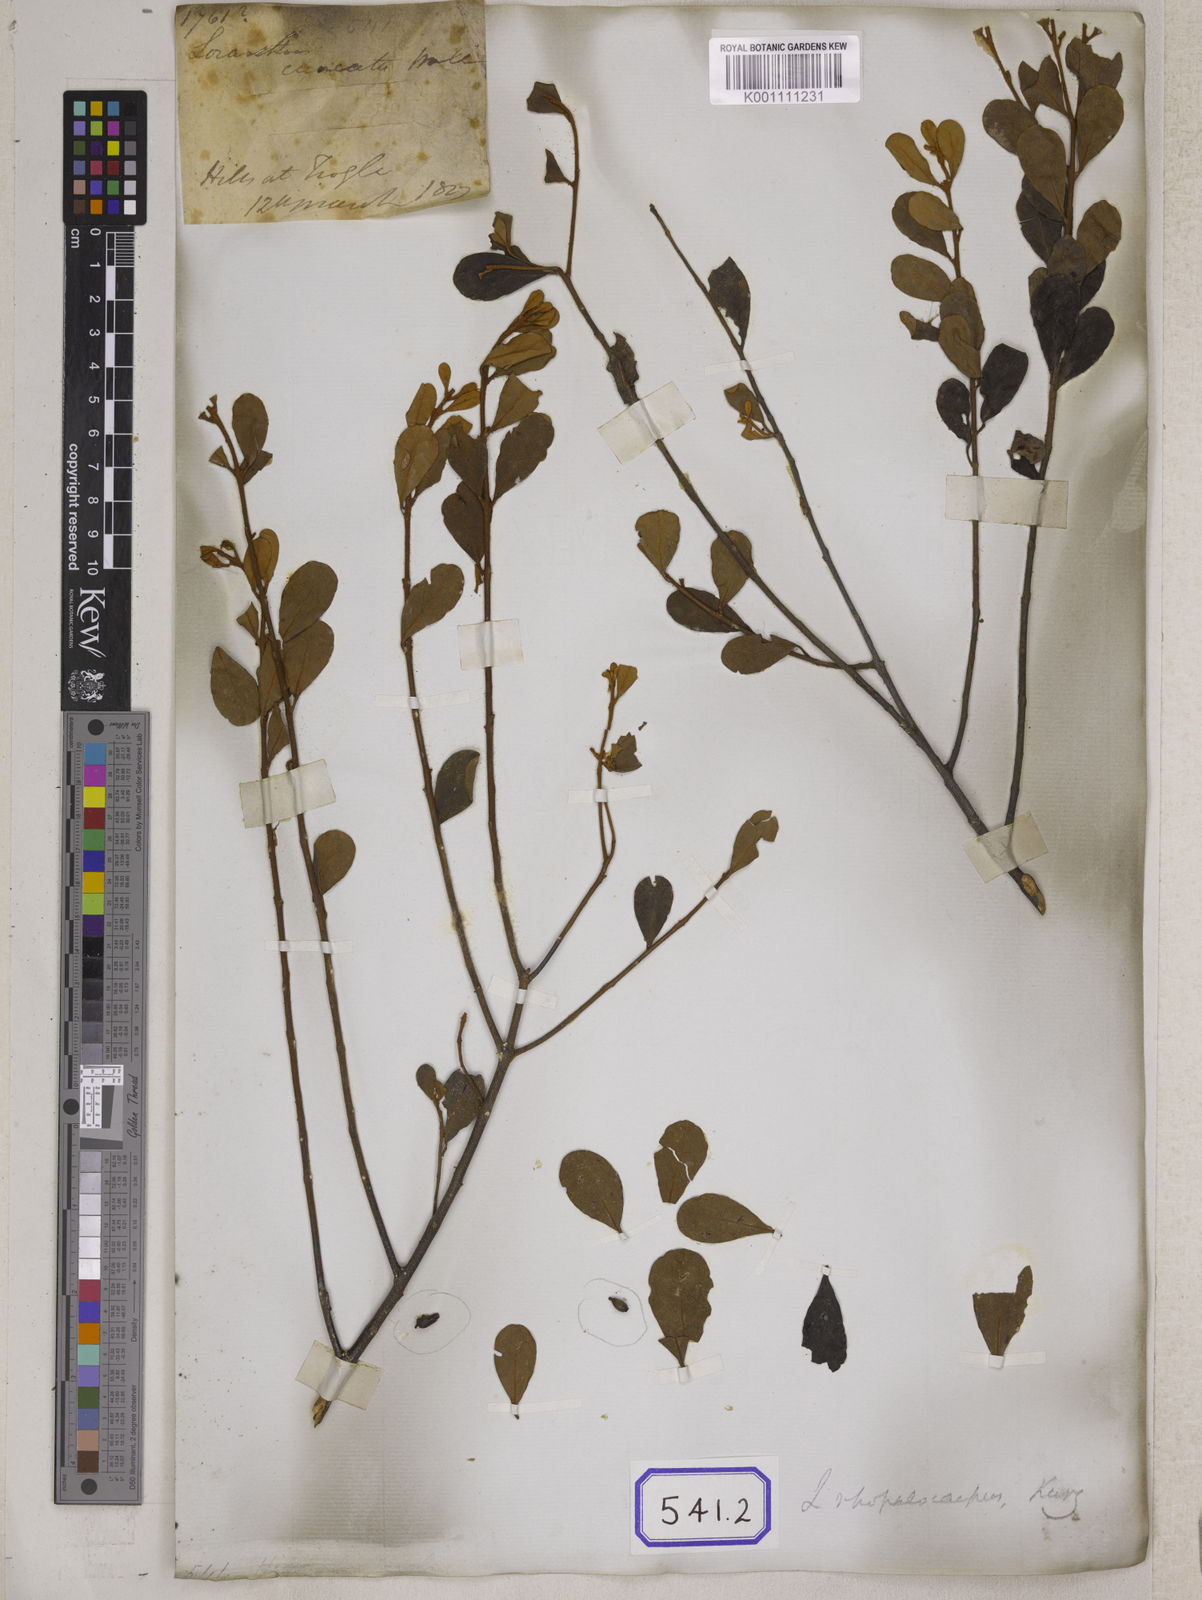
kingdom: Plantae
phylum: Tracheophyta
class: Magnoliopsida
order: Santalales
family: Loranthaceae
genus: Scurrula
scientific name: Scurrula fusca
